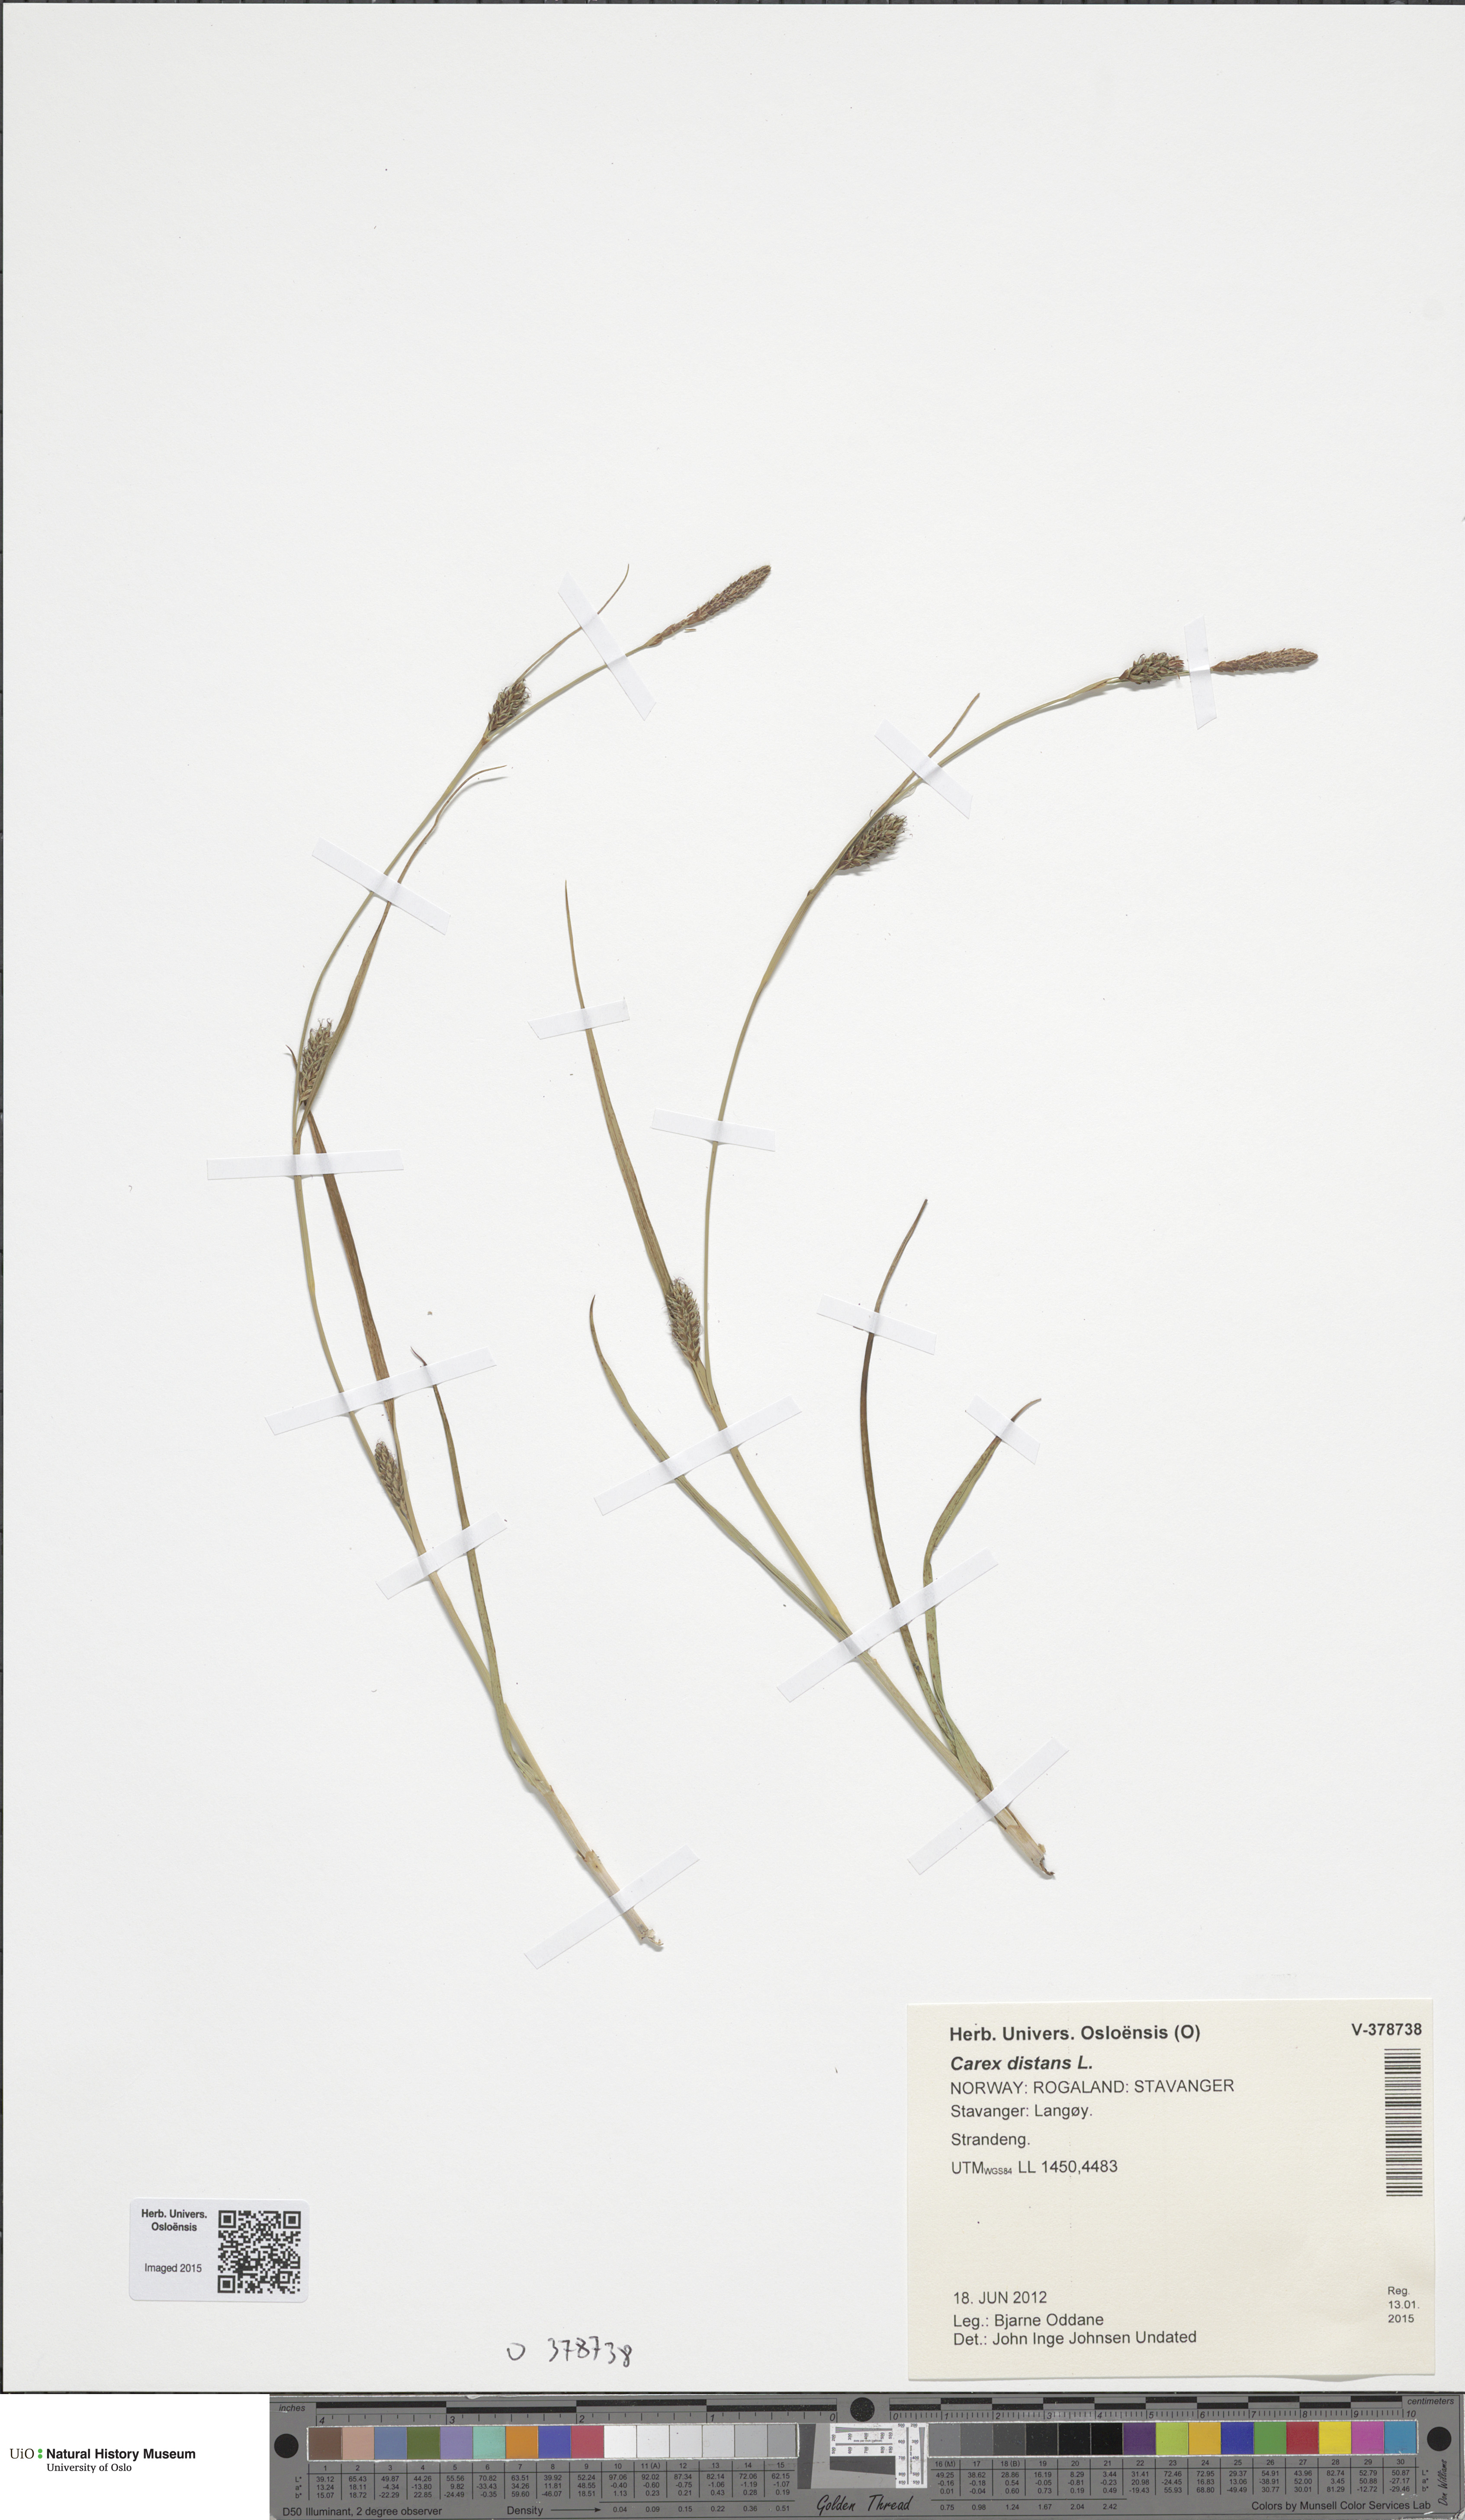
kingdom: Plantae
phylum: Tracheophyta
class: Liliopsida
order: Poales
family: Cyperaceae
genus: Carex
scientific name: Carex distans
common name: Distant sedge
